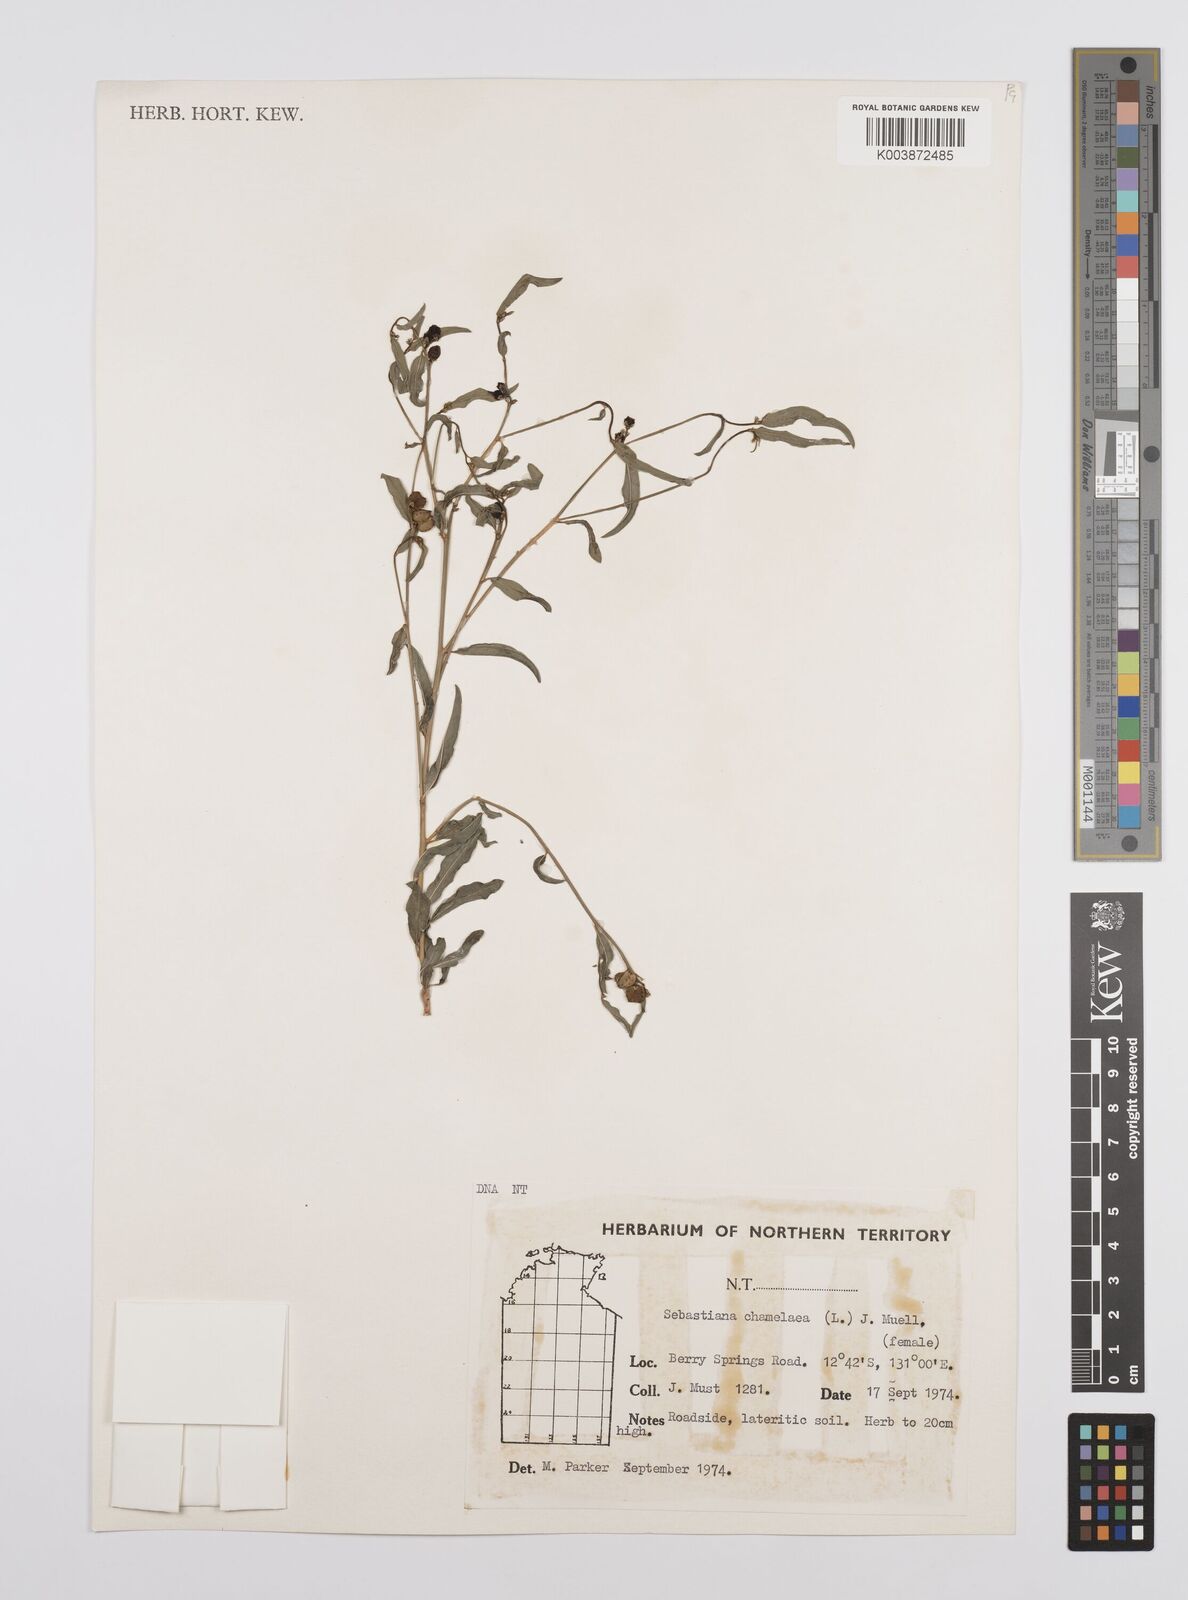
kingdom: Plantae
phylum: Tracheophyta
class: Magnoliopsida
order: Malpighiales
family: Euphorbiaceae
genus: Microstachys
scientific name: Microstachys chamaelea
